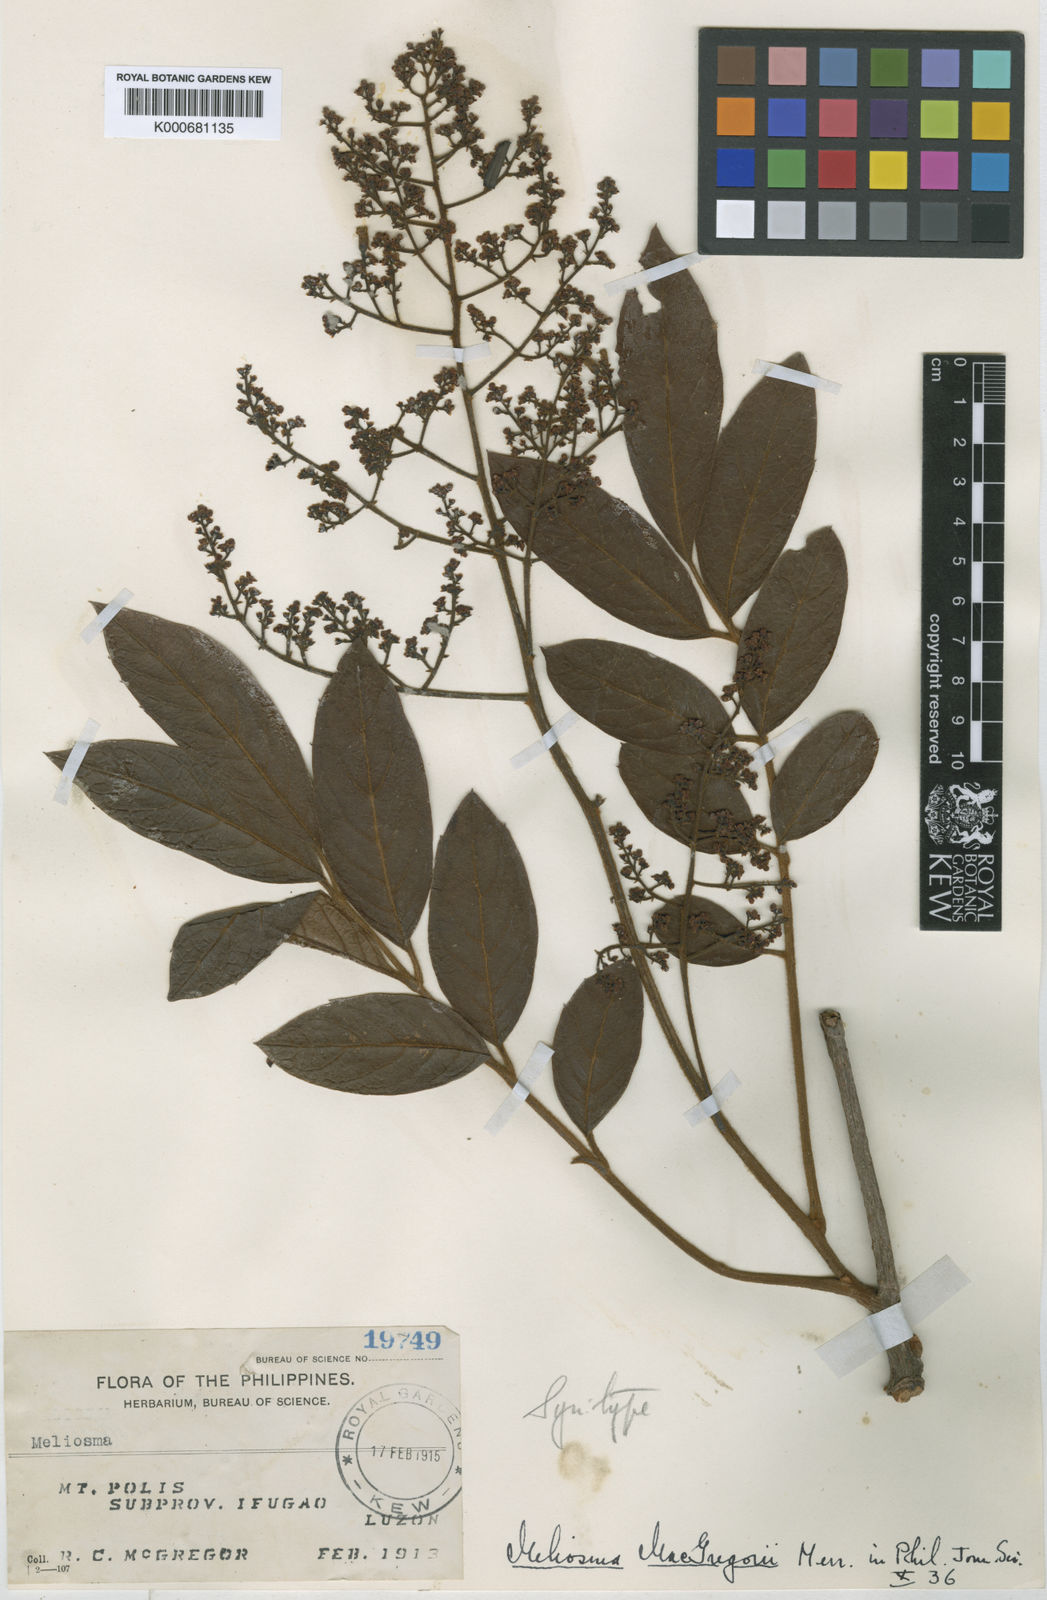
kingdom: Plantae
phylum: Tracheophyta
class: Magnoliopsida
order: Proteales
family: Sabiaceae
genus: Meliosma
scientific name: Meliosma pinnata
